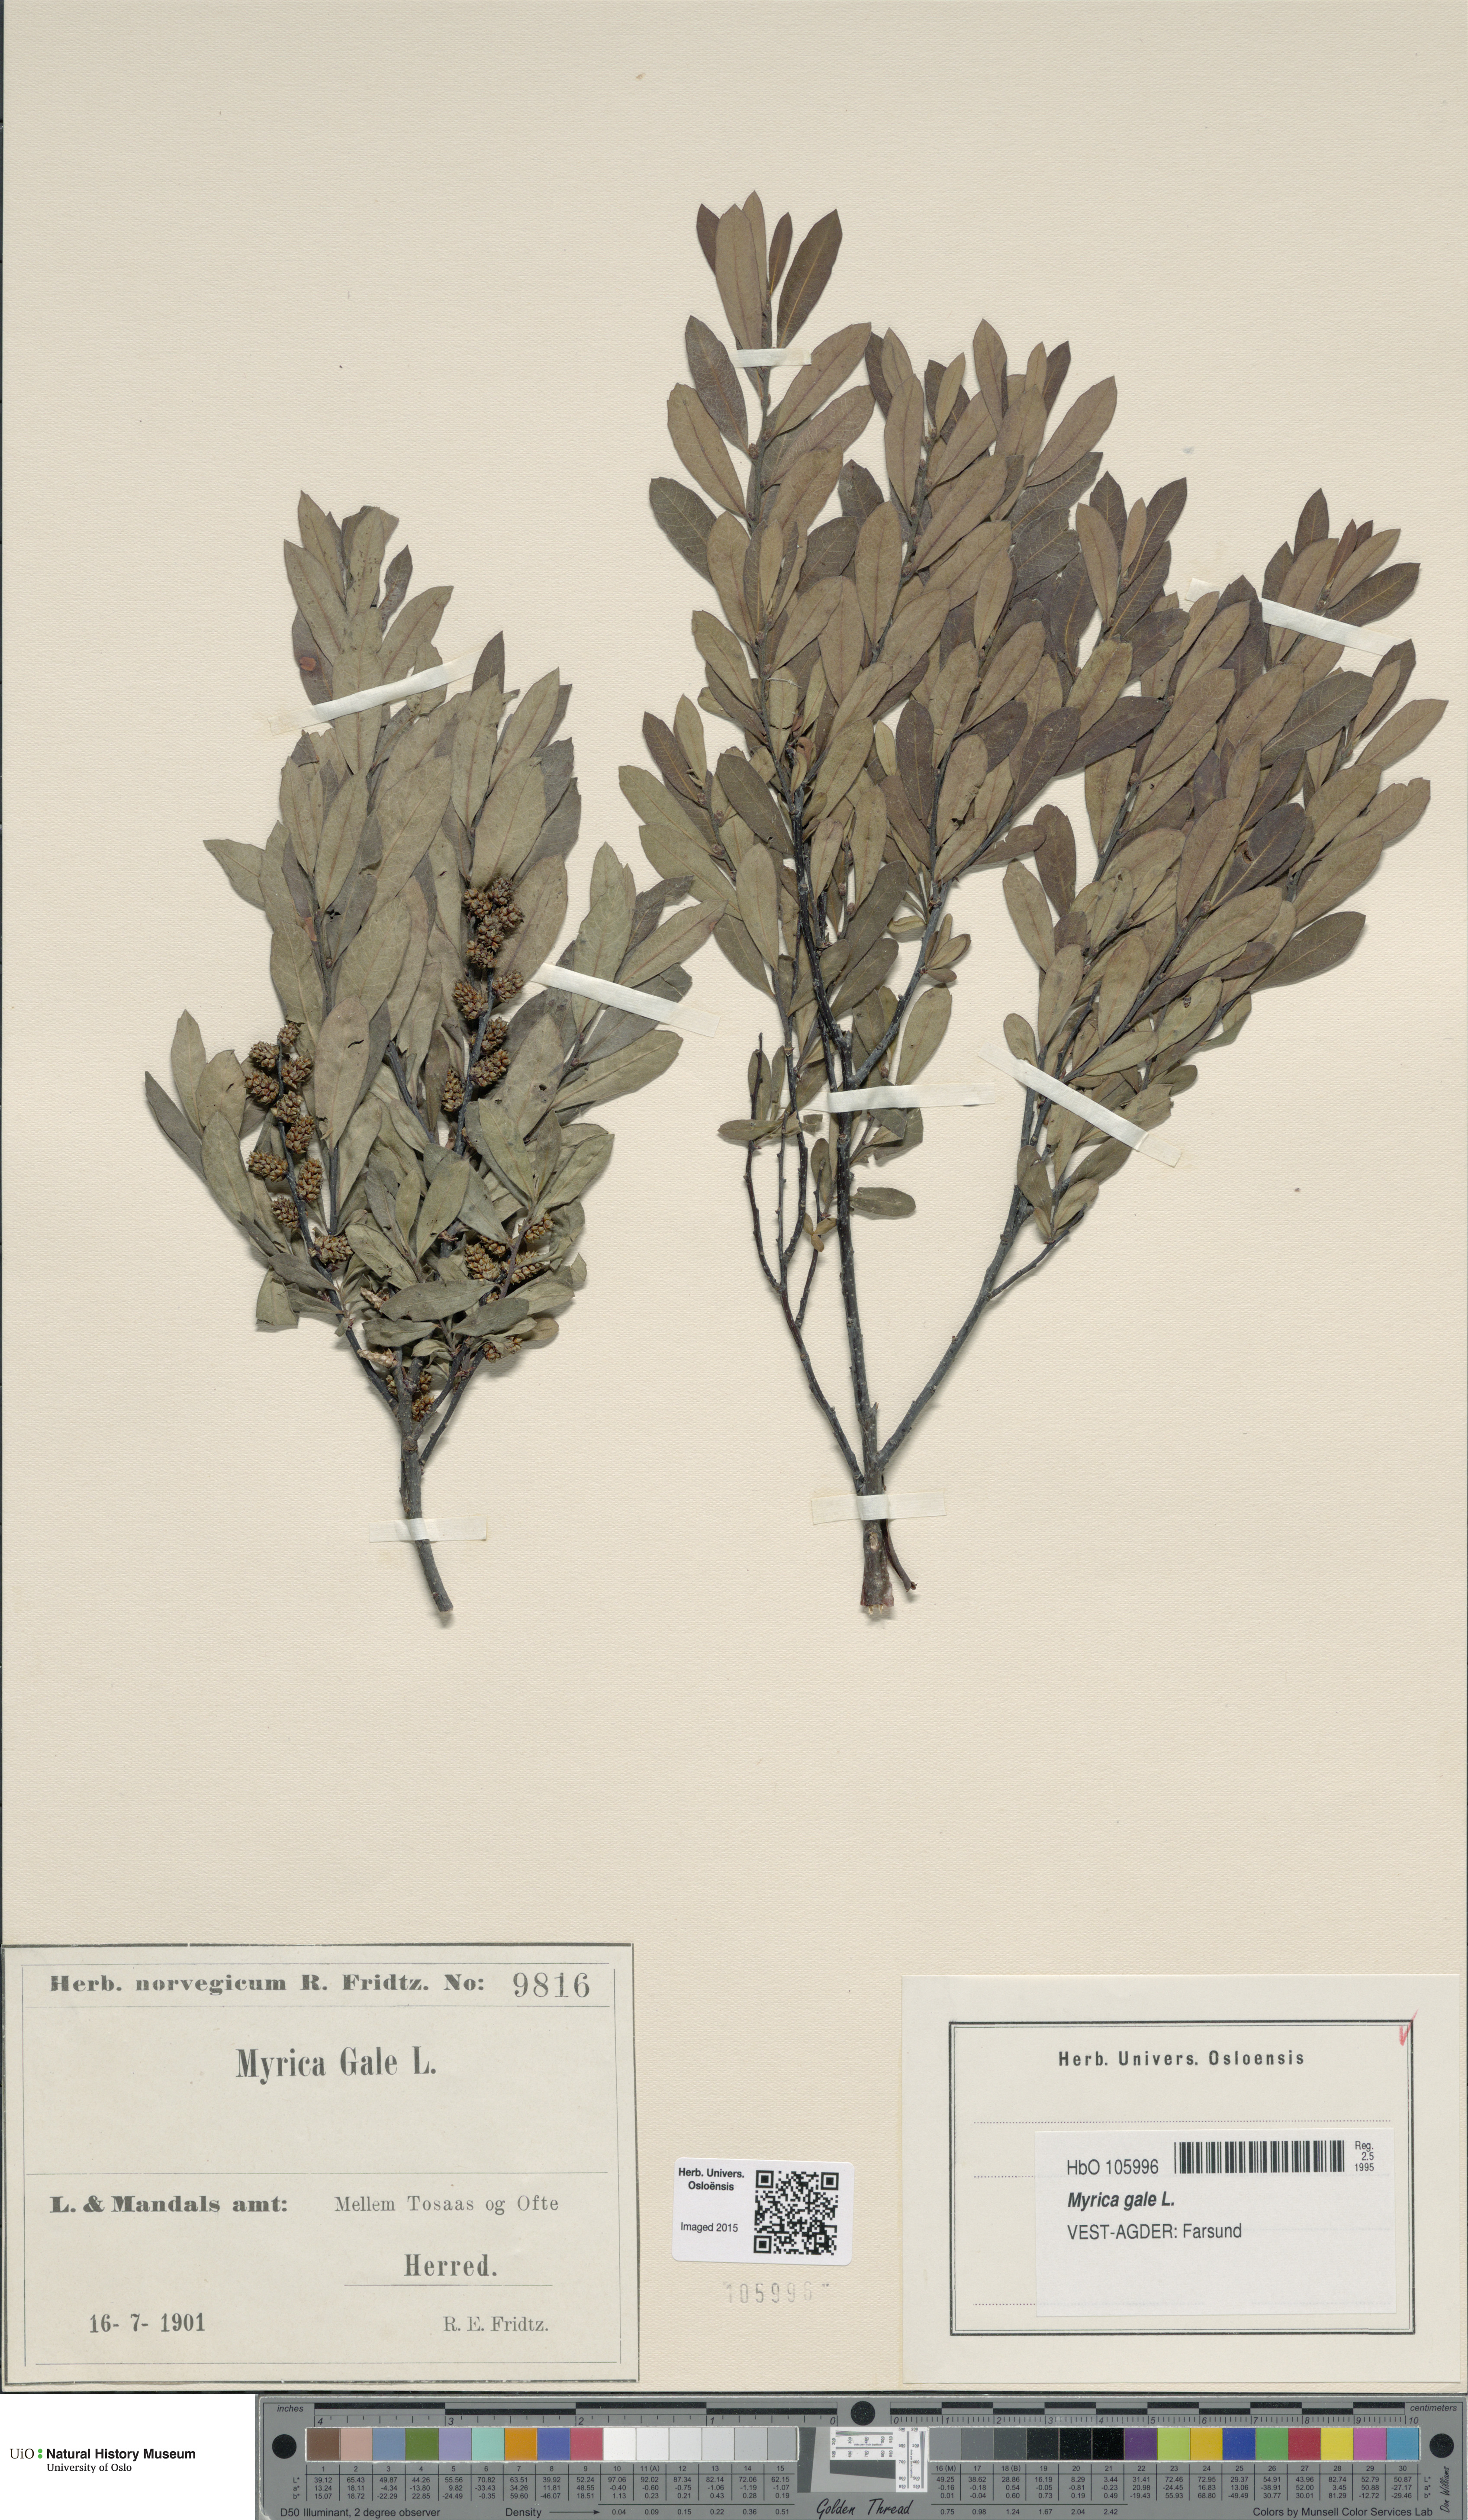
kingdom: Plantae
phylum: Tracheophyta
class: Magnoliopsida
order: Fagales
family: Myricaceae
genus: Myrica
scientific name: Myrica gale
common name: Sweet gale
